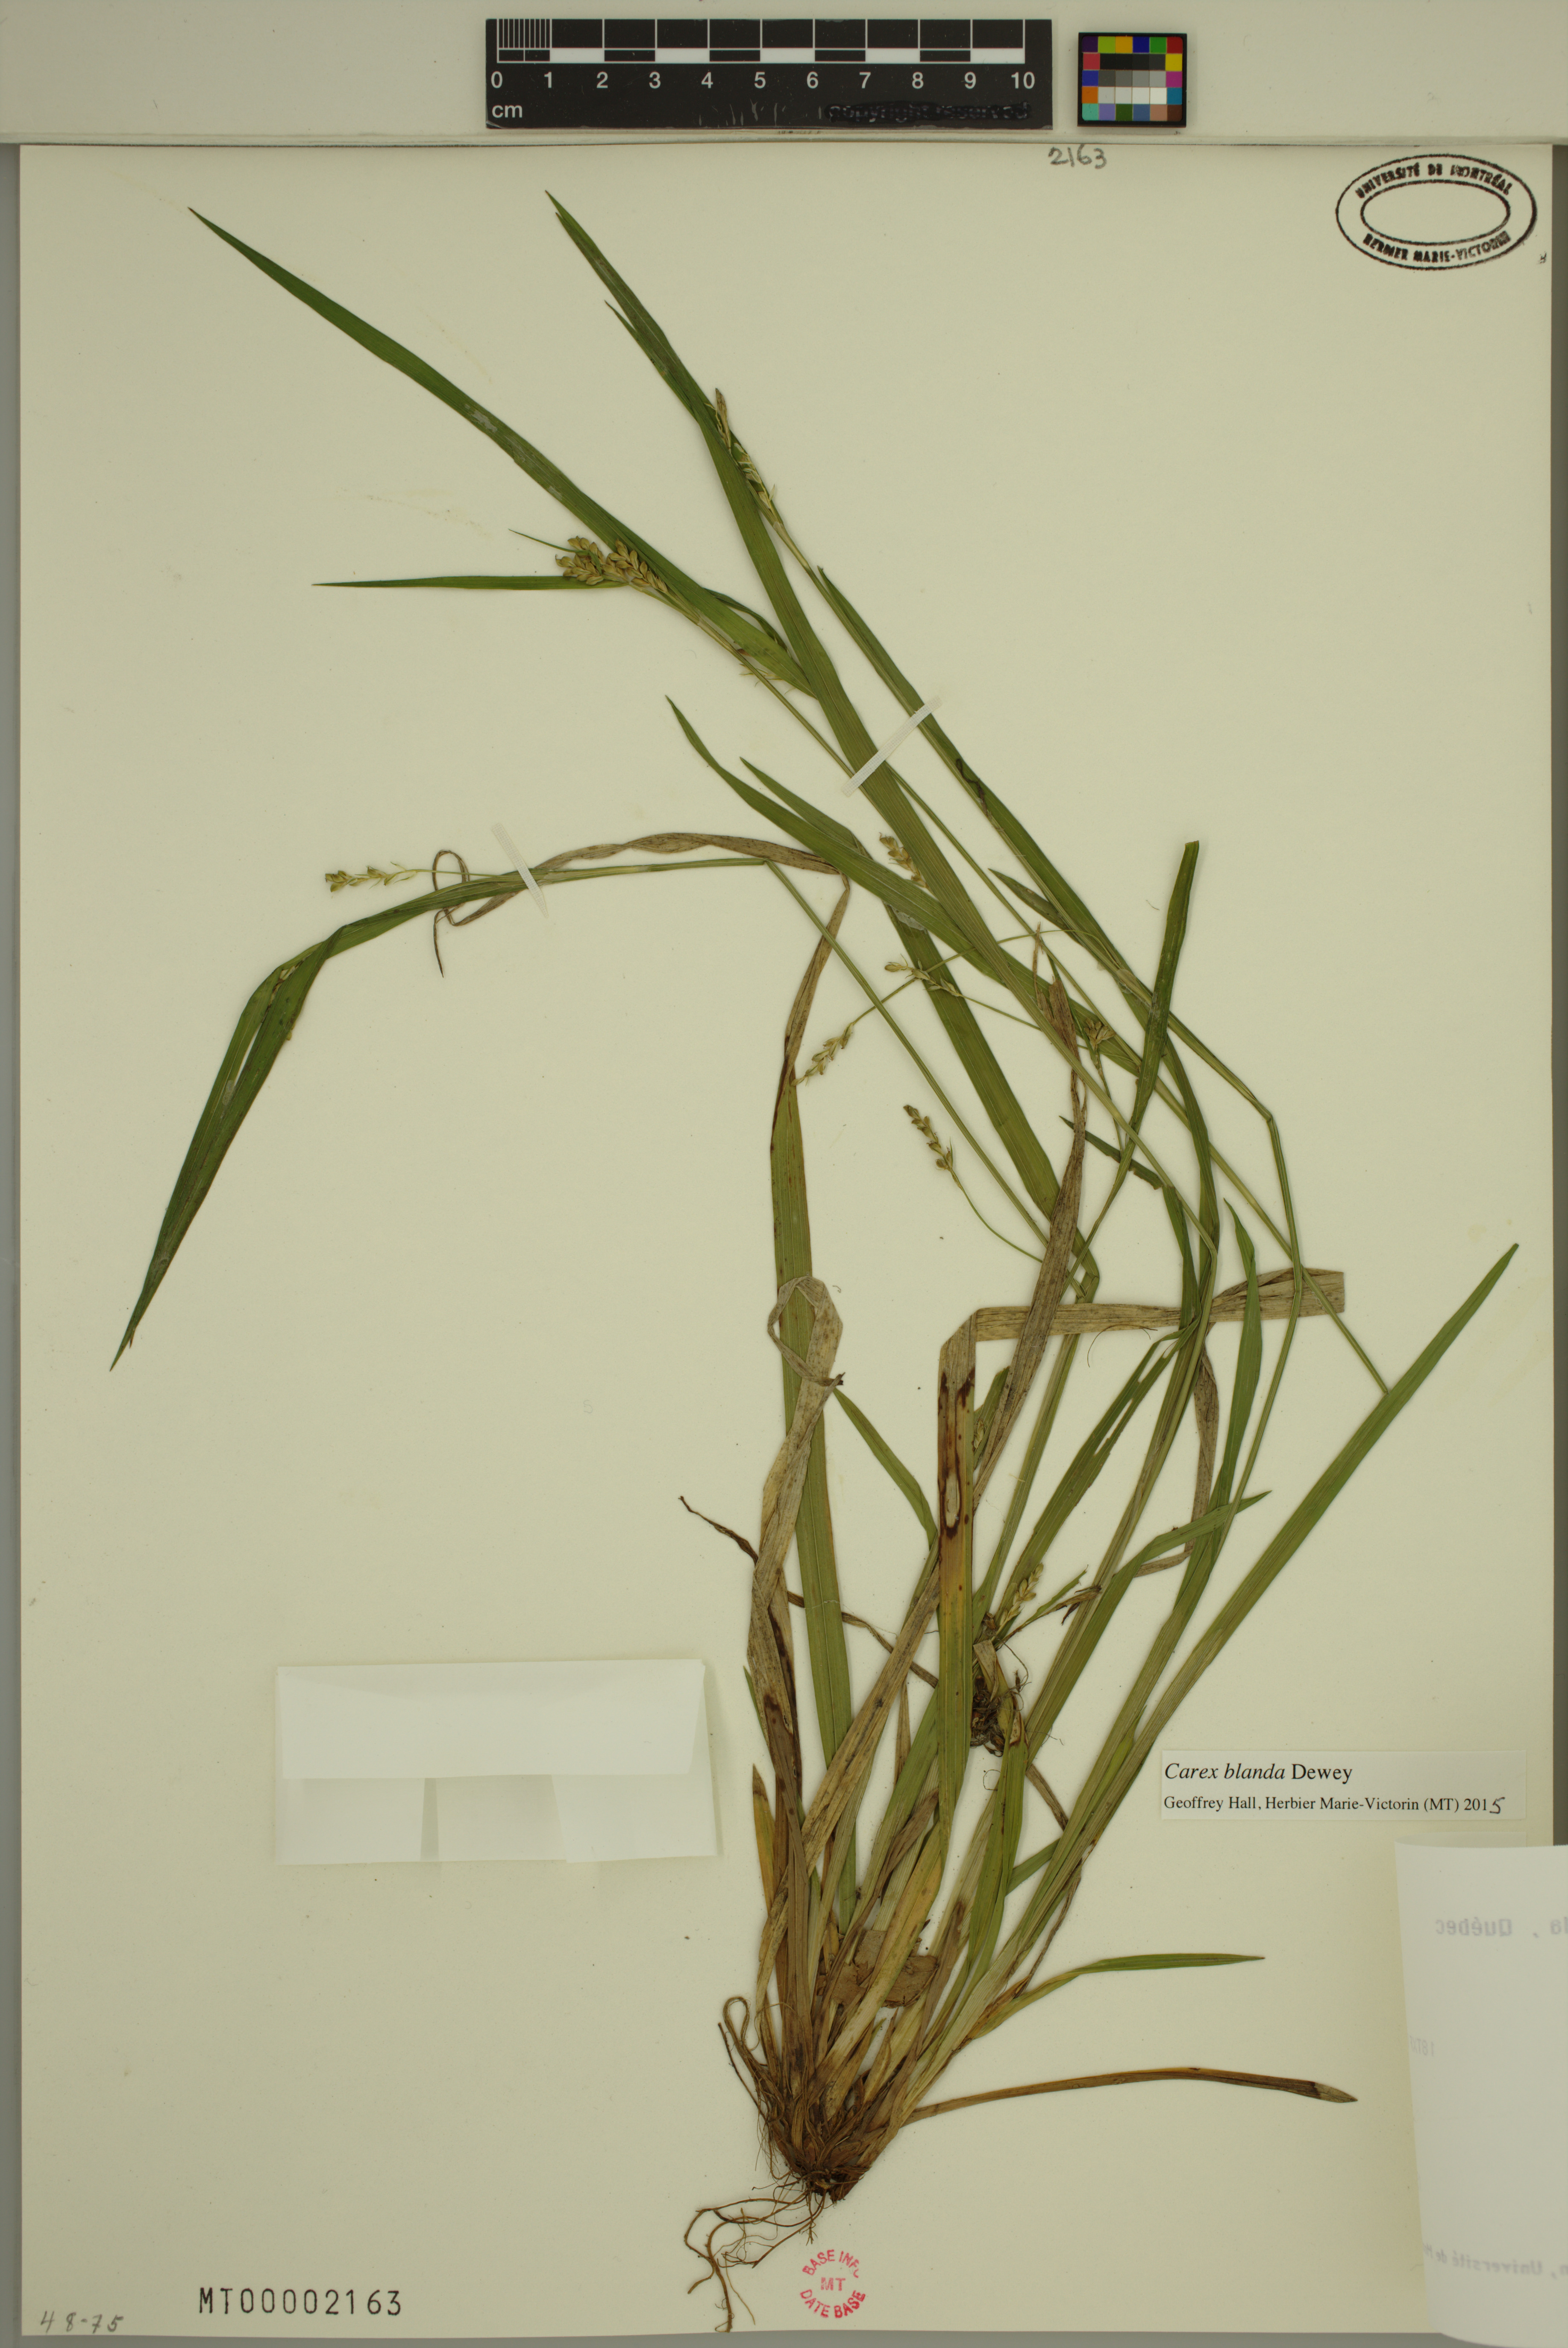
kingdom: Plantae
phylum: Tracheophyta
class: Liliopsida
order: Poales
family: Cyperaceae
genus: Carex
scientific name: Carex blanda
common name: Bland sedge
